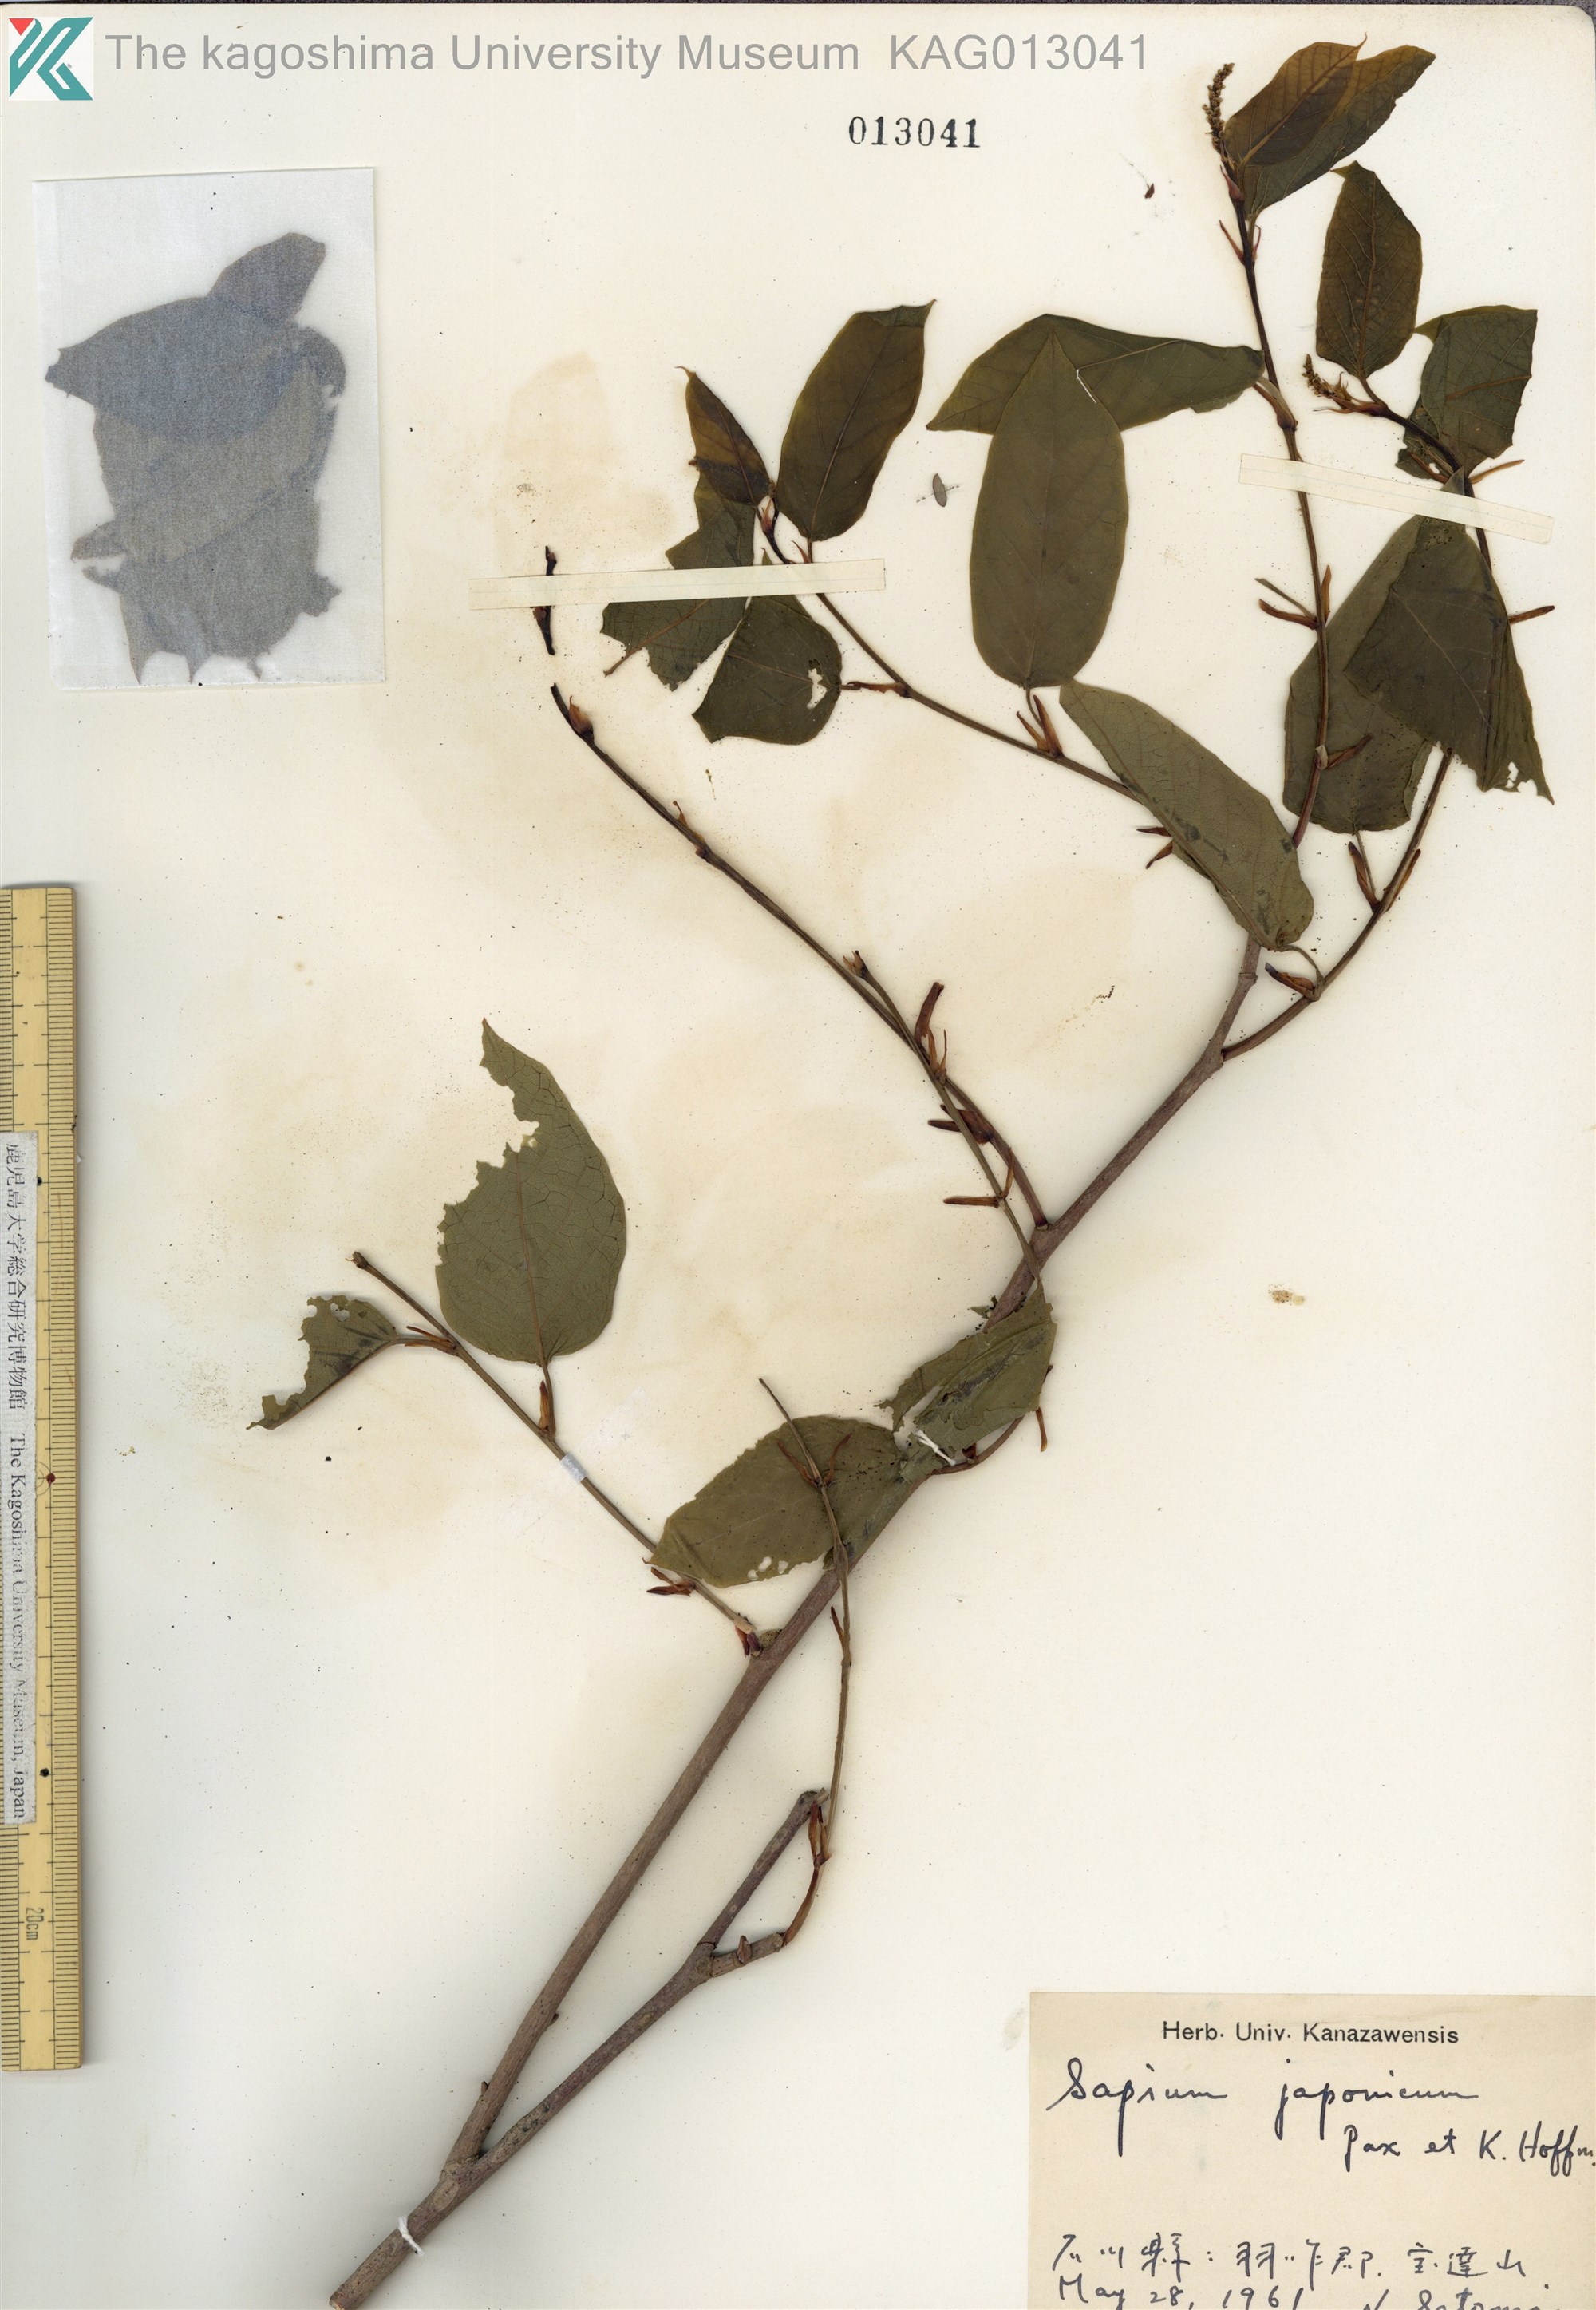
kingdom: Plantae
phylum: Tracheophyta
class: Magnoliopsida
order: Malpighiales
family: Euphorbiaceae
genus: Neoshirakia
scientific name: Neoshirakia japonica
